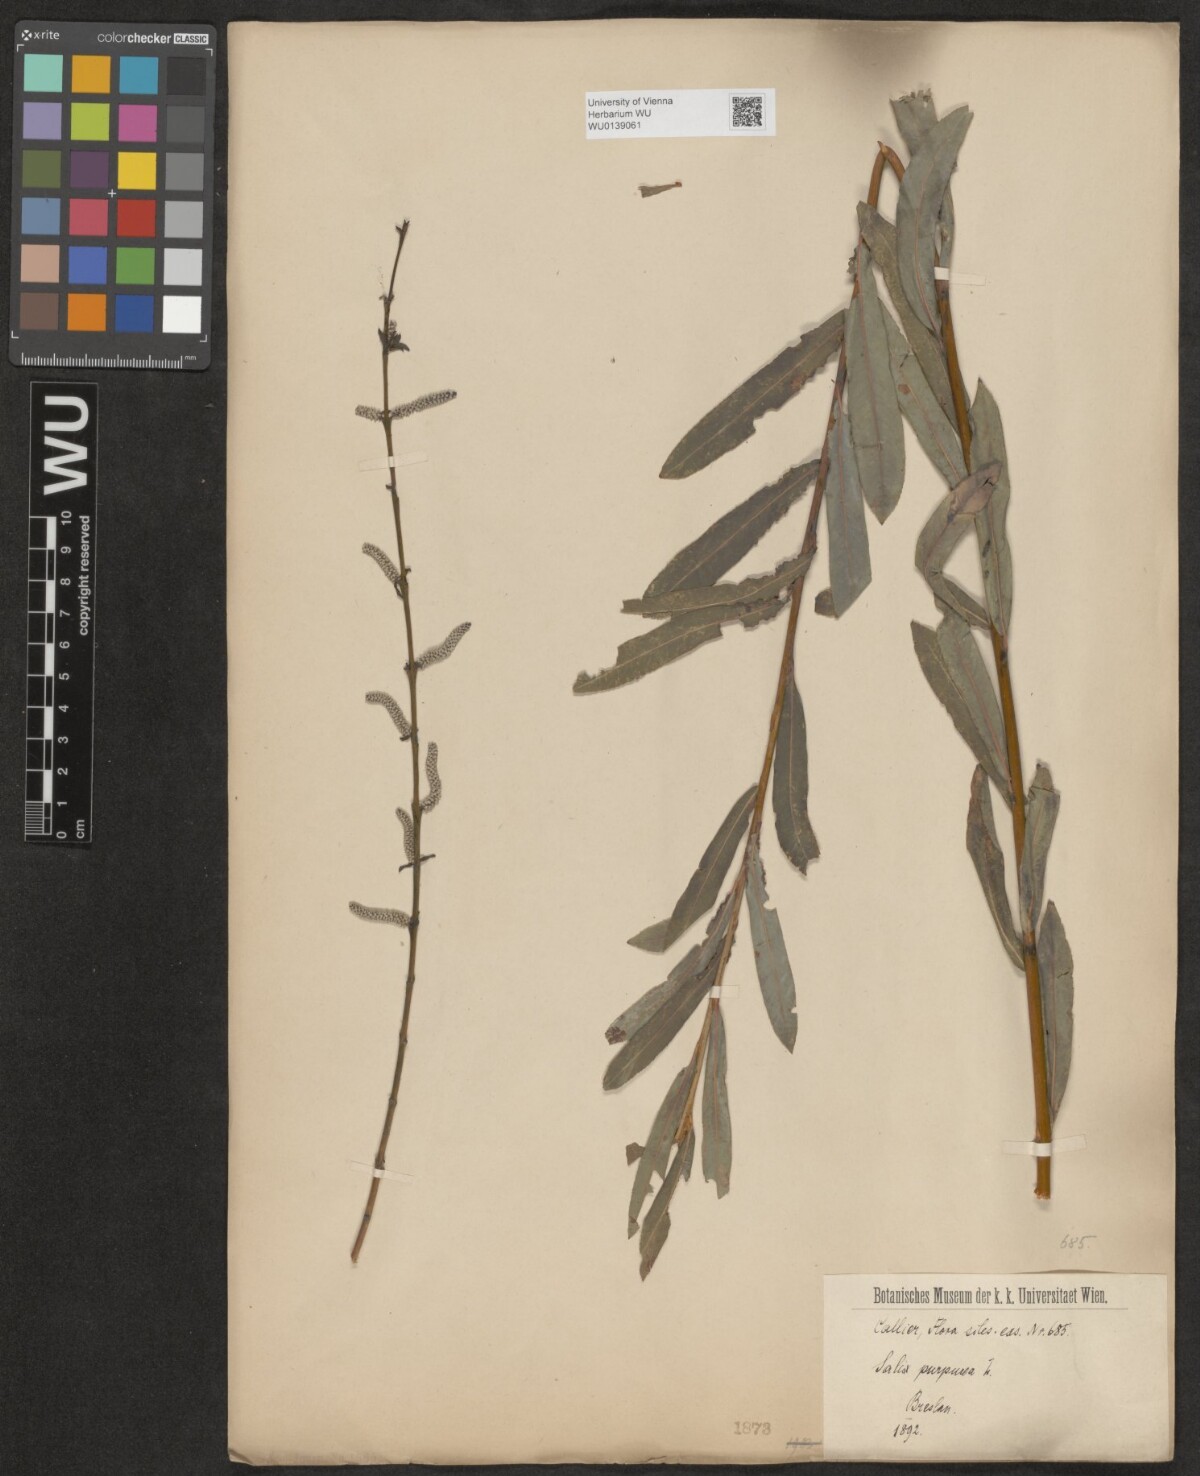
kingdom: Plantae
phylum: Tracheophyta
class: Magnoliopsida
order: Malpighiales
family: Salicaceae
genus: Salix
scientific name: Salix purpurea
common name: Purple willow
